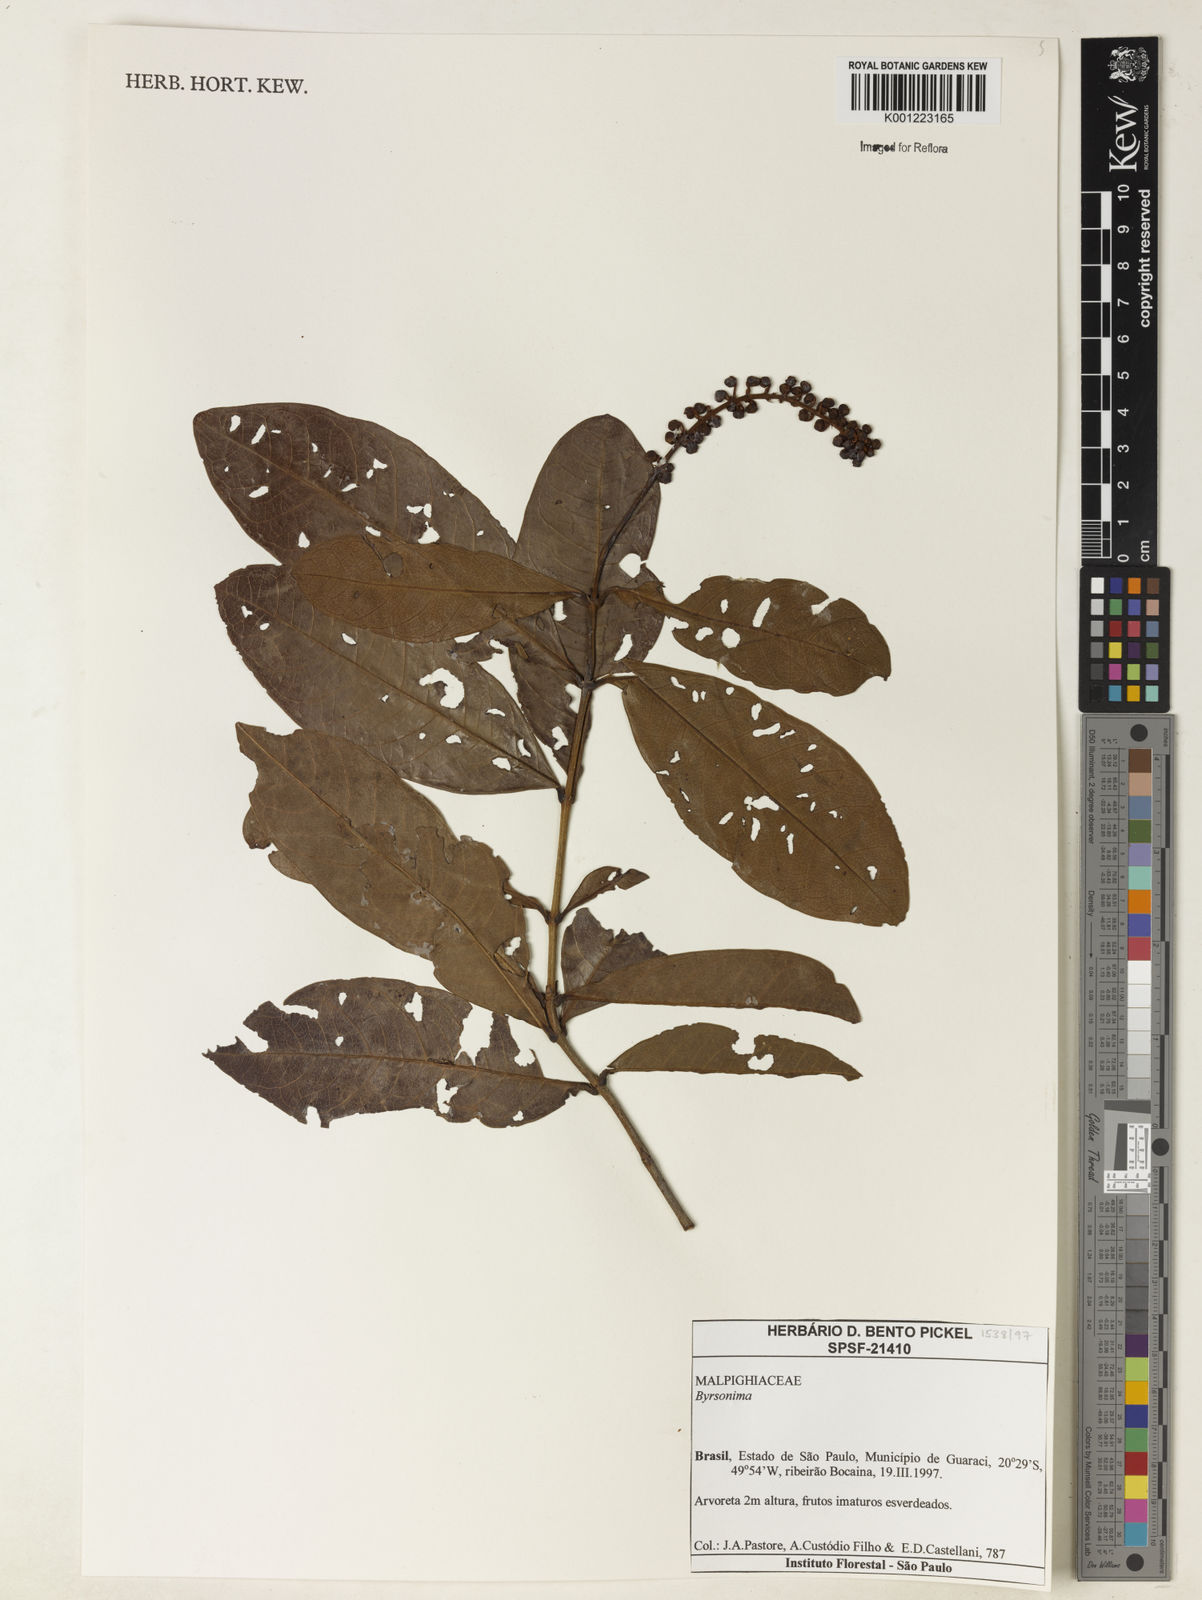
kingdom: Plantae
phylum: Tracheophyta
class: Magnoliopsida
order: Malpighiales
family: Malpighiaceae
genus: Byrsonima
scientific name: Byrsonima
